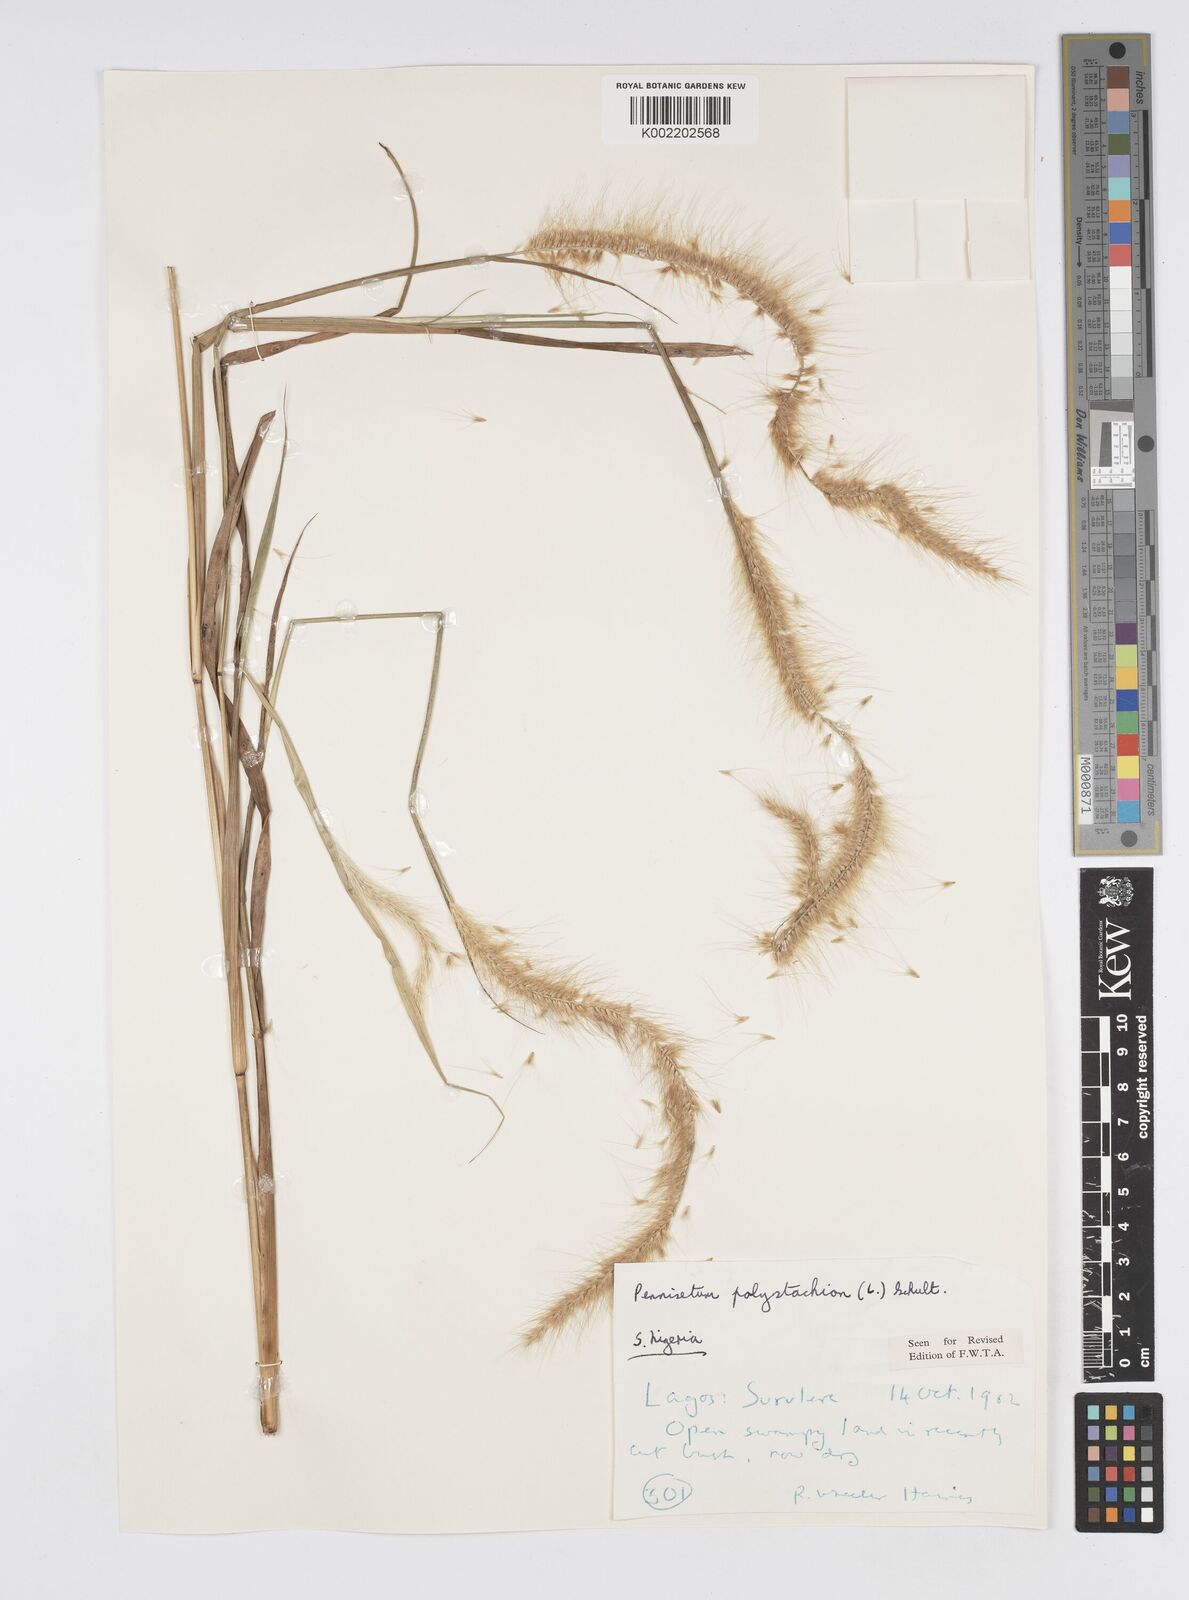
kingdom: Plantae
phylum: Tracheophyta
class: Liliopsida
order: Poales
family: Poaceae
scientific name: Poaceae
